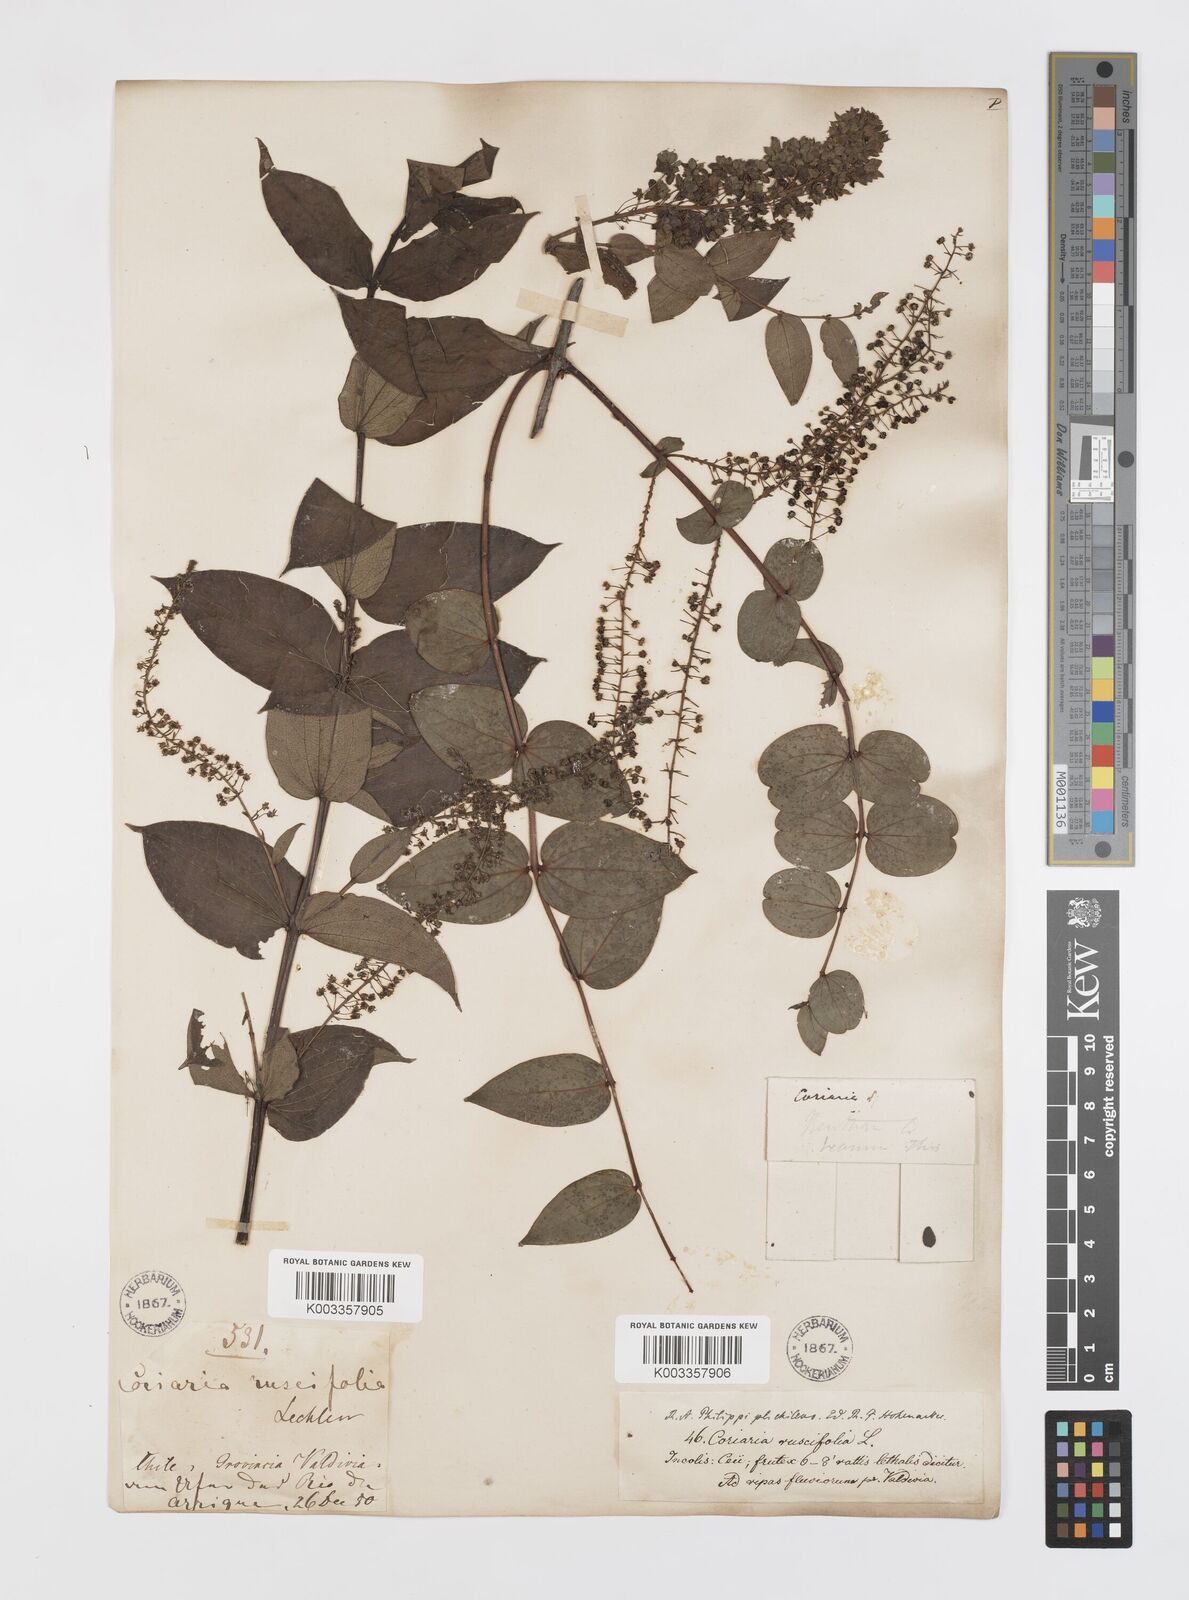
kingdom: Plantae
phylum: Tracheophyta
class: Magnoliopsida
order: Cucurbitales
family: Coriariaceae
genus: Coriaria
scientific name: Coriaria ruscifolia
